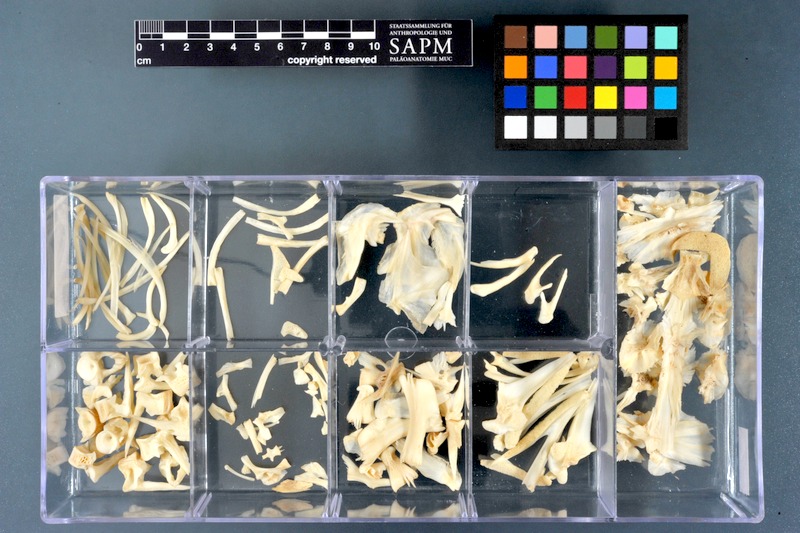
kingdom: Animalia
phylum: Chordata
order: Gadiformes
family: Lotidae
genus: Lota
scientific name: Lota lota
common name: Burbot
